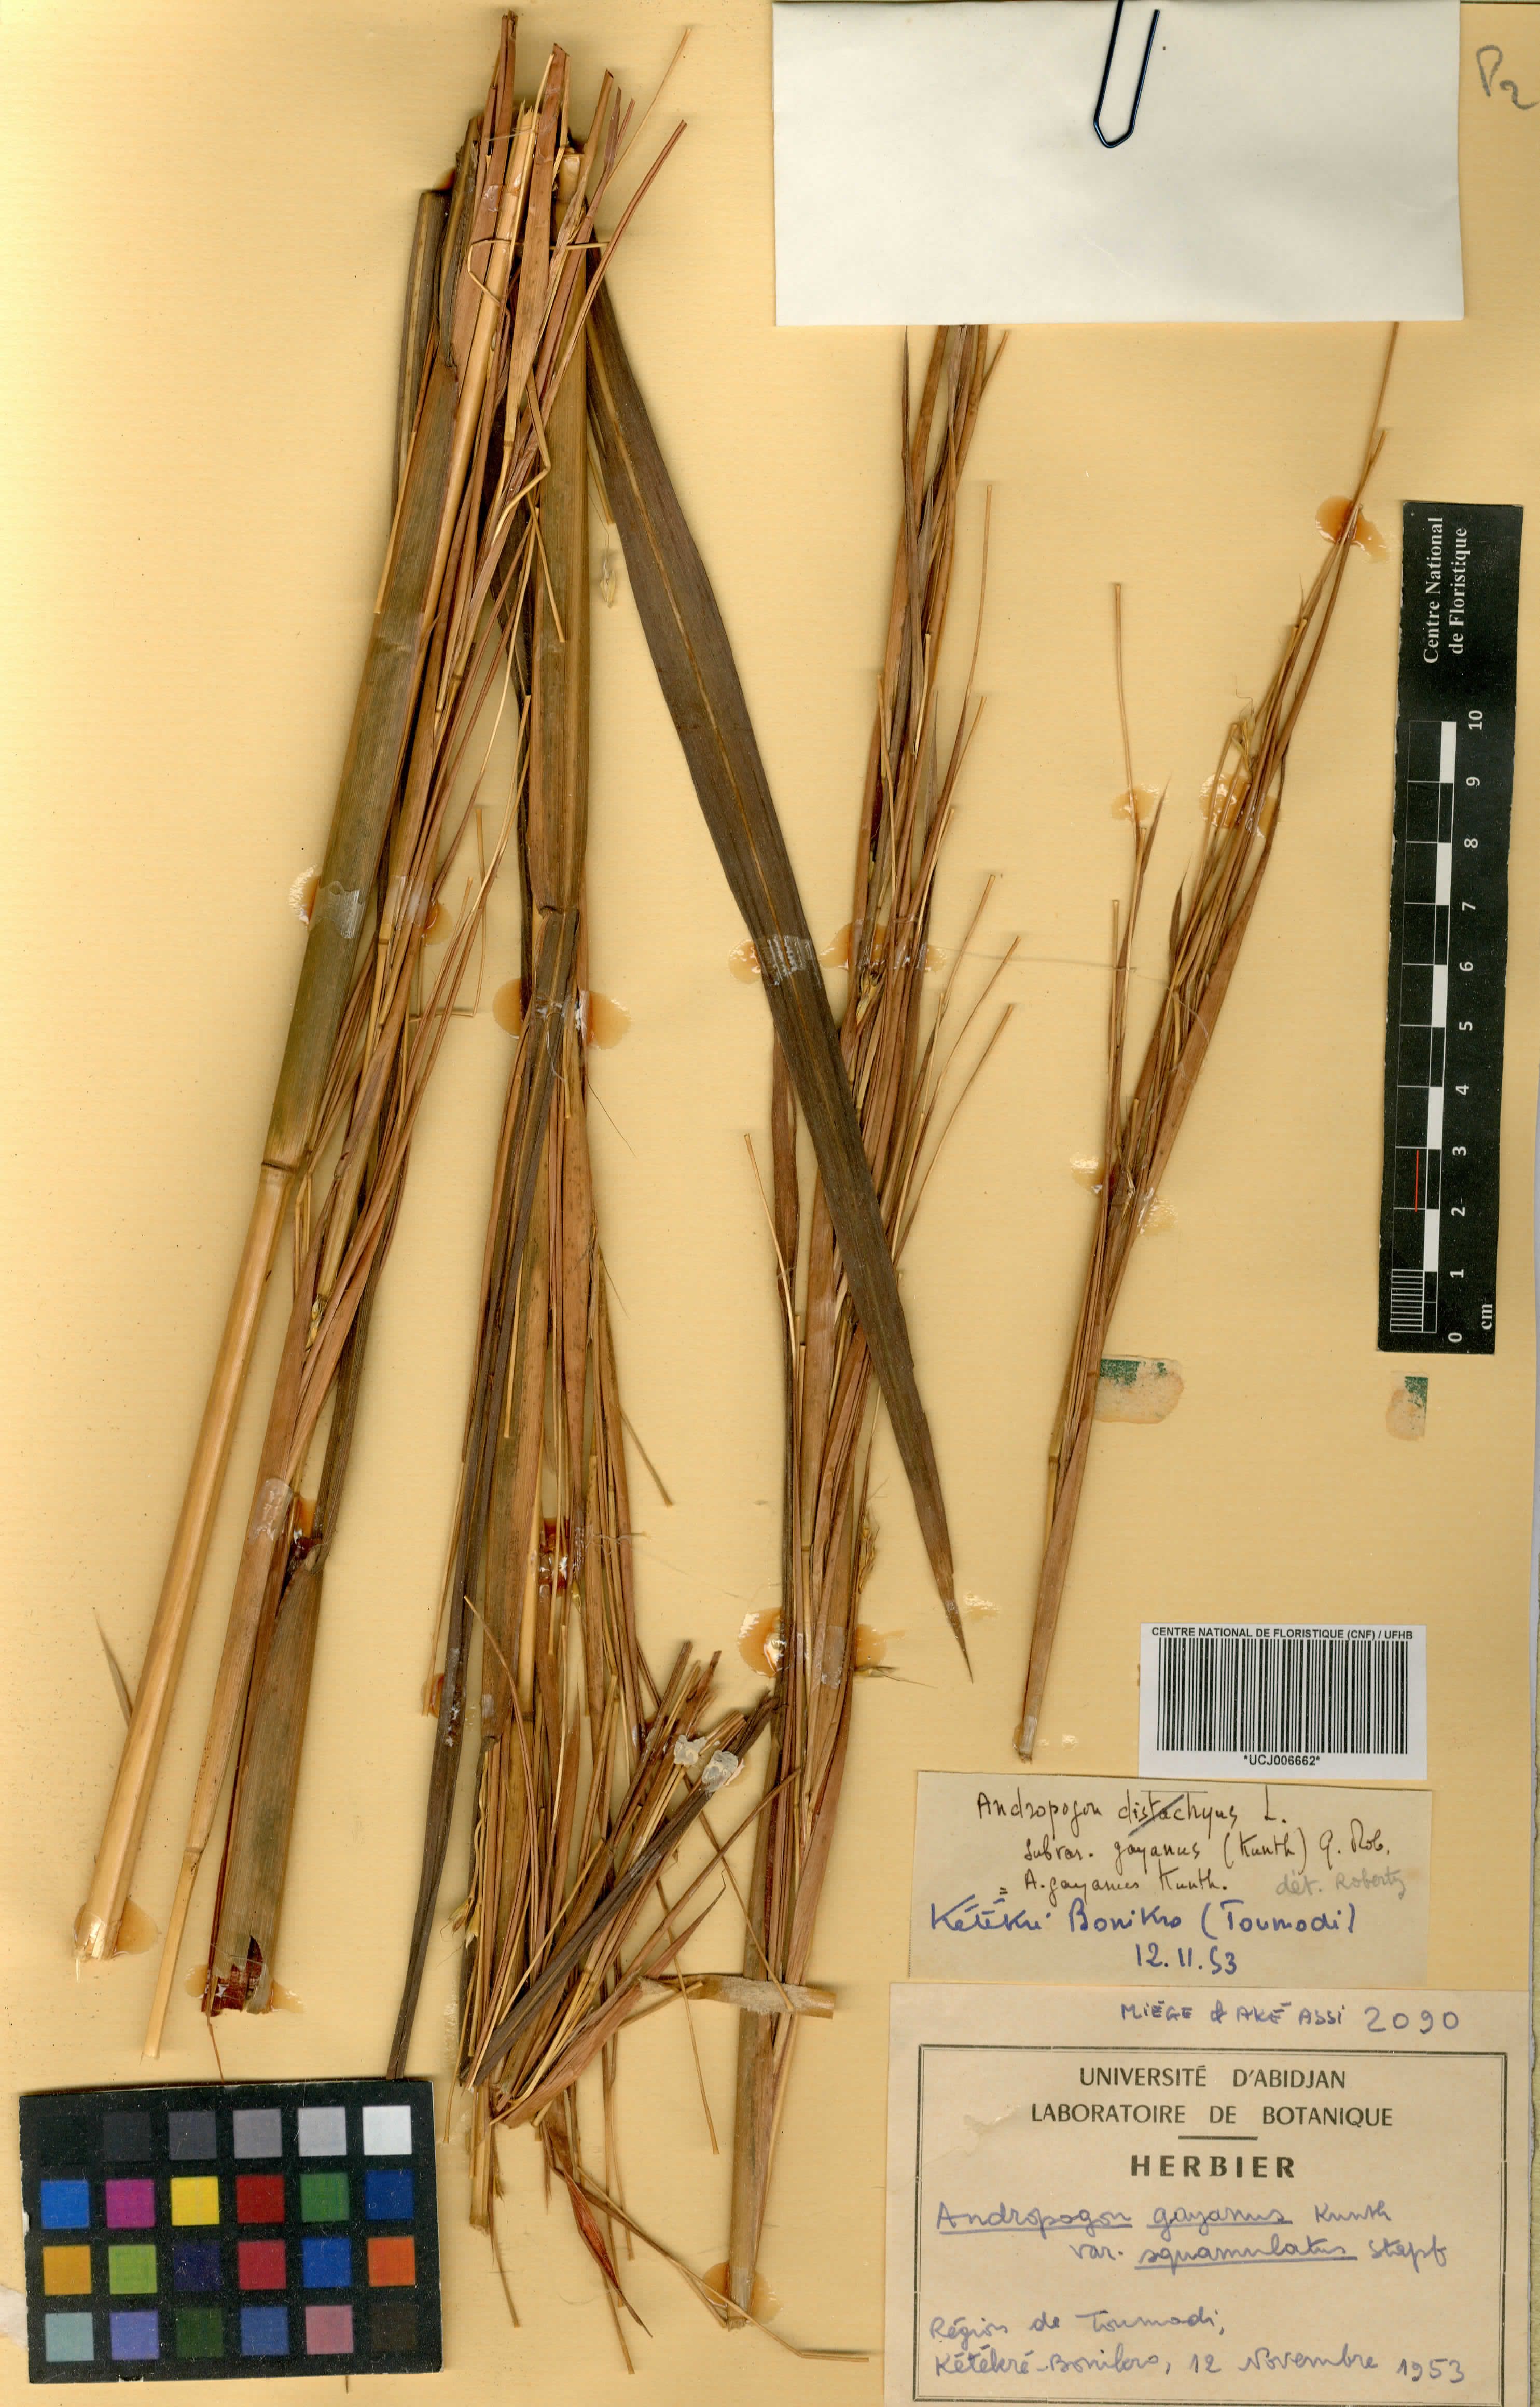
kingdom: Plantae
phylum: Tracheophyta
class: Liliopsida
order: Poales
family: Poaceae
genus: Andropogon
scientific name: Andropogon gayanus
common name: Tambuki grass
